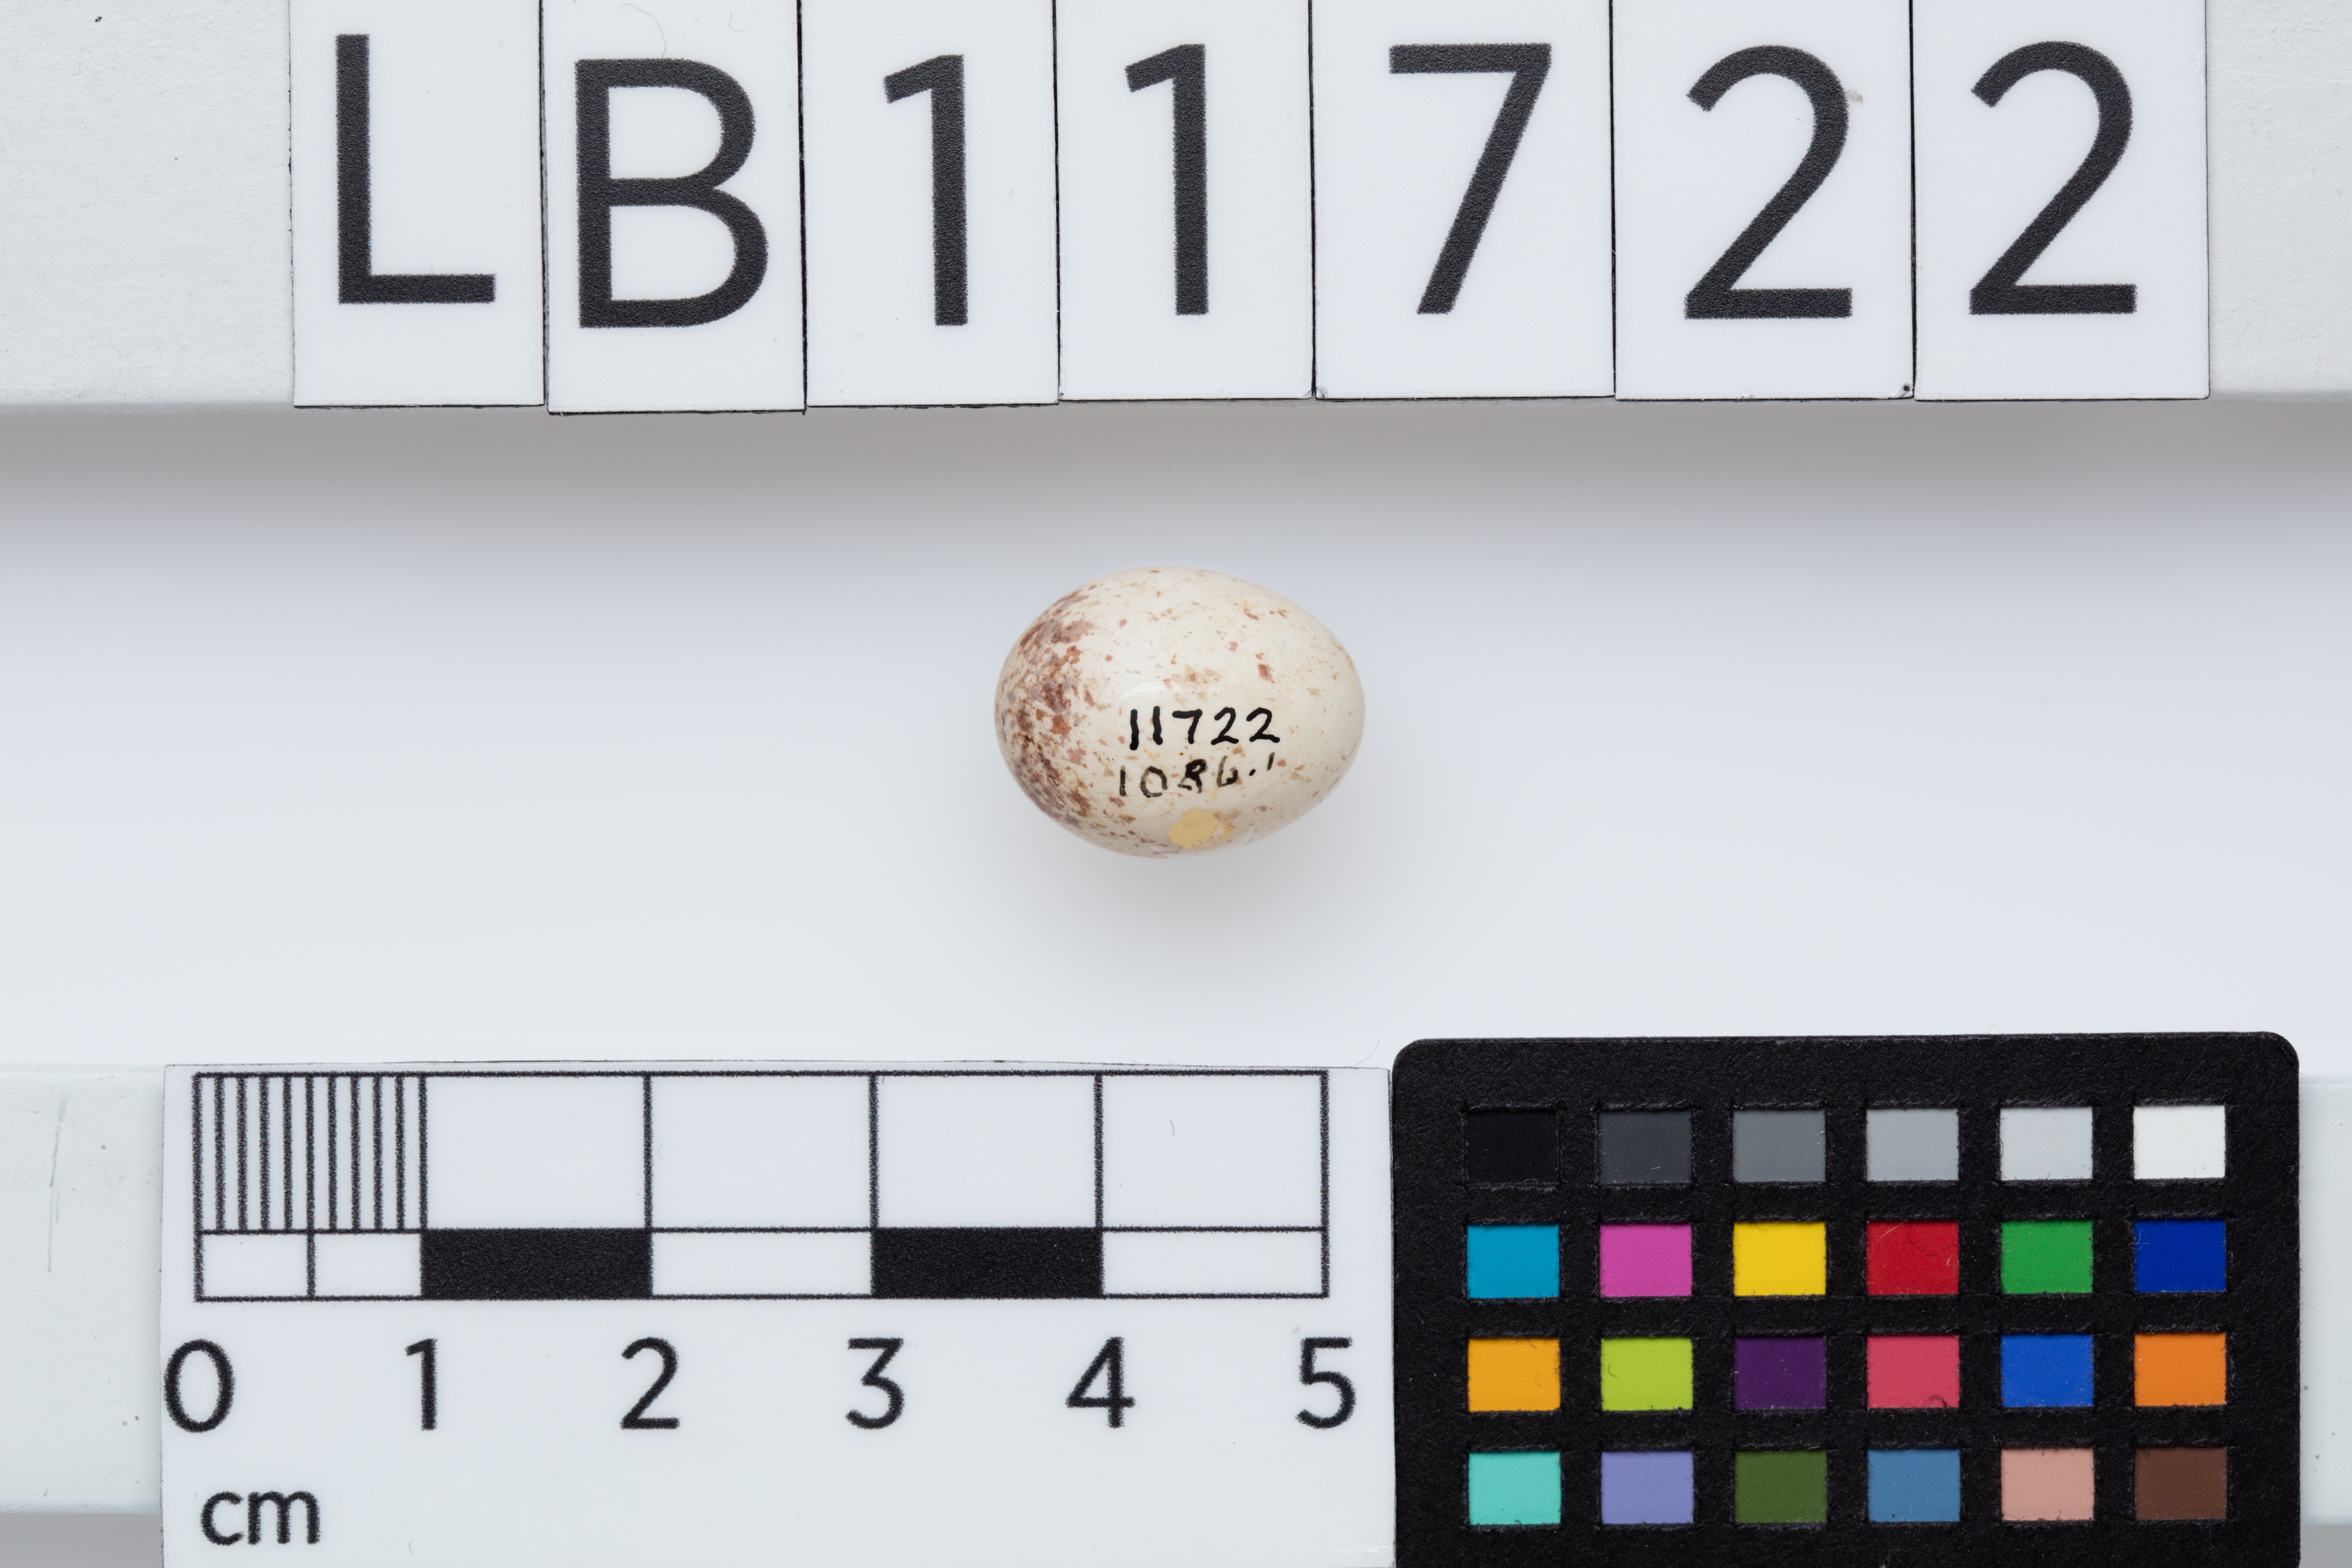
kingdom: Animalia
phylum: Chordata
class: Aves
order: Passeriformes
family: Acanthizidae
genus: Gerygone
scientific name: Gerygone igata
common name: Grey gerygone
